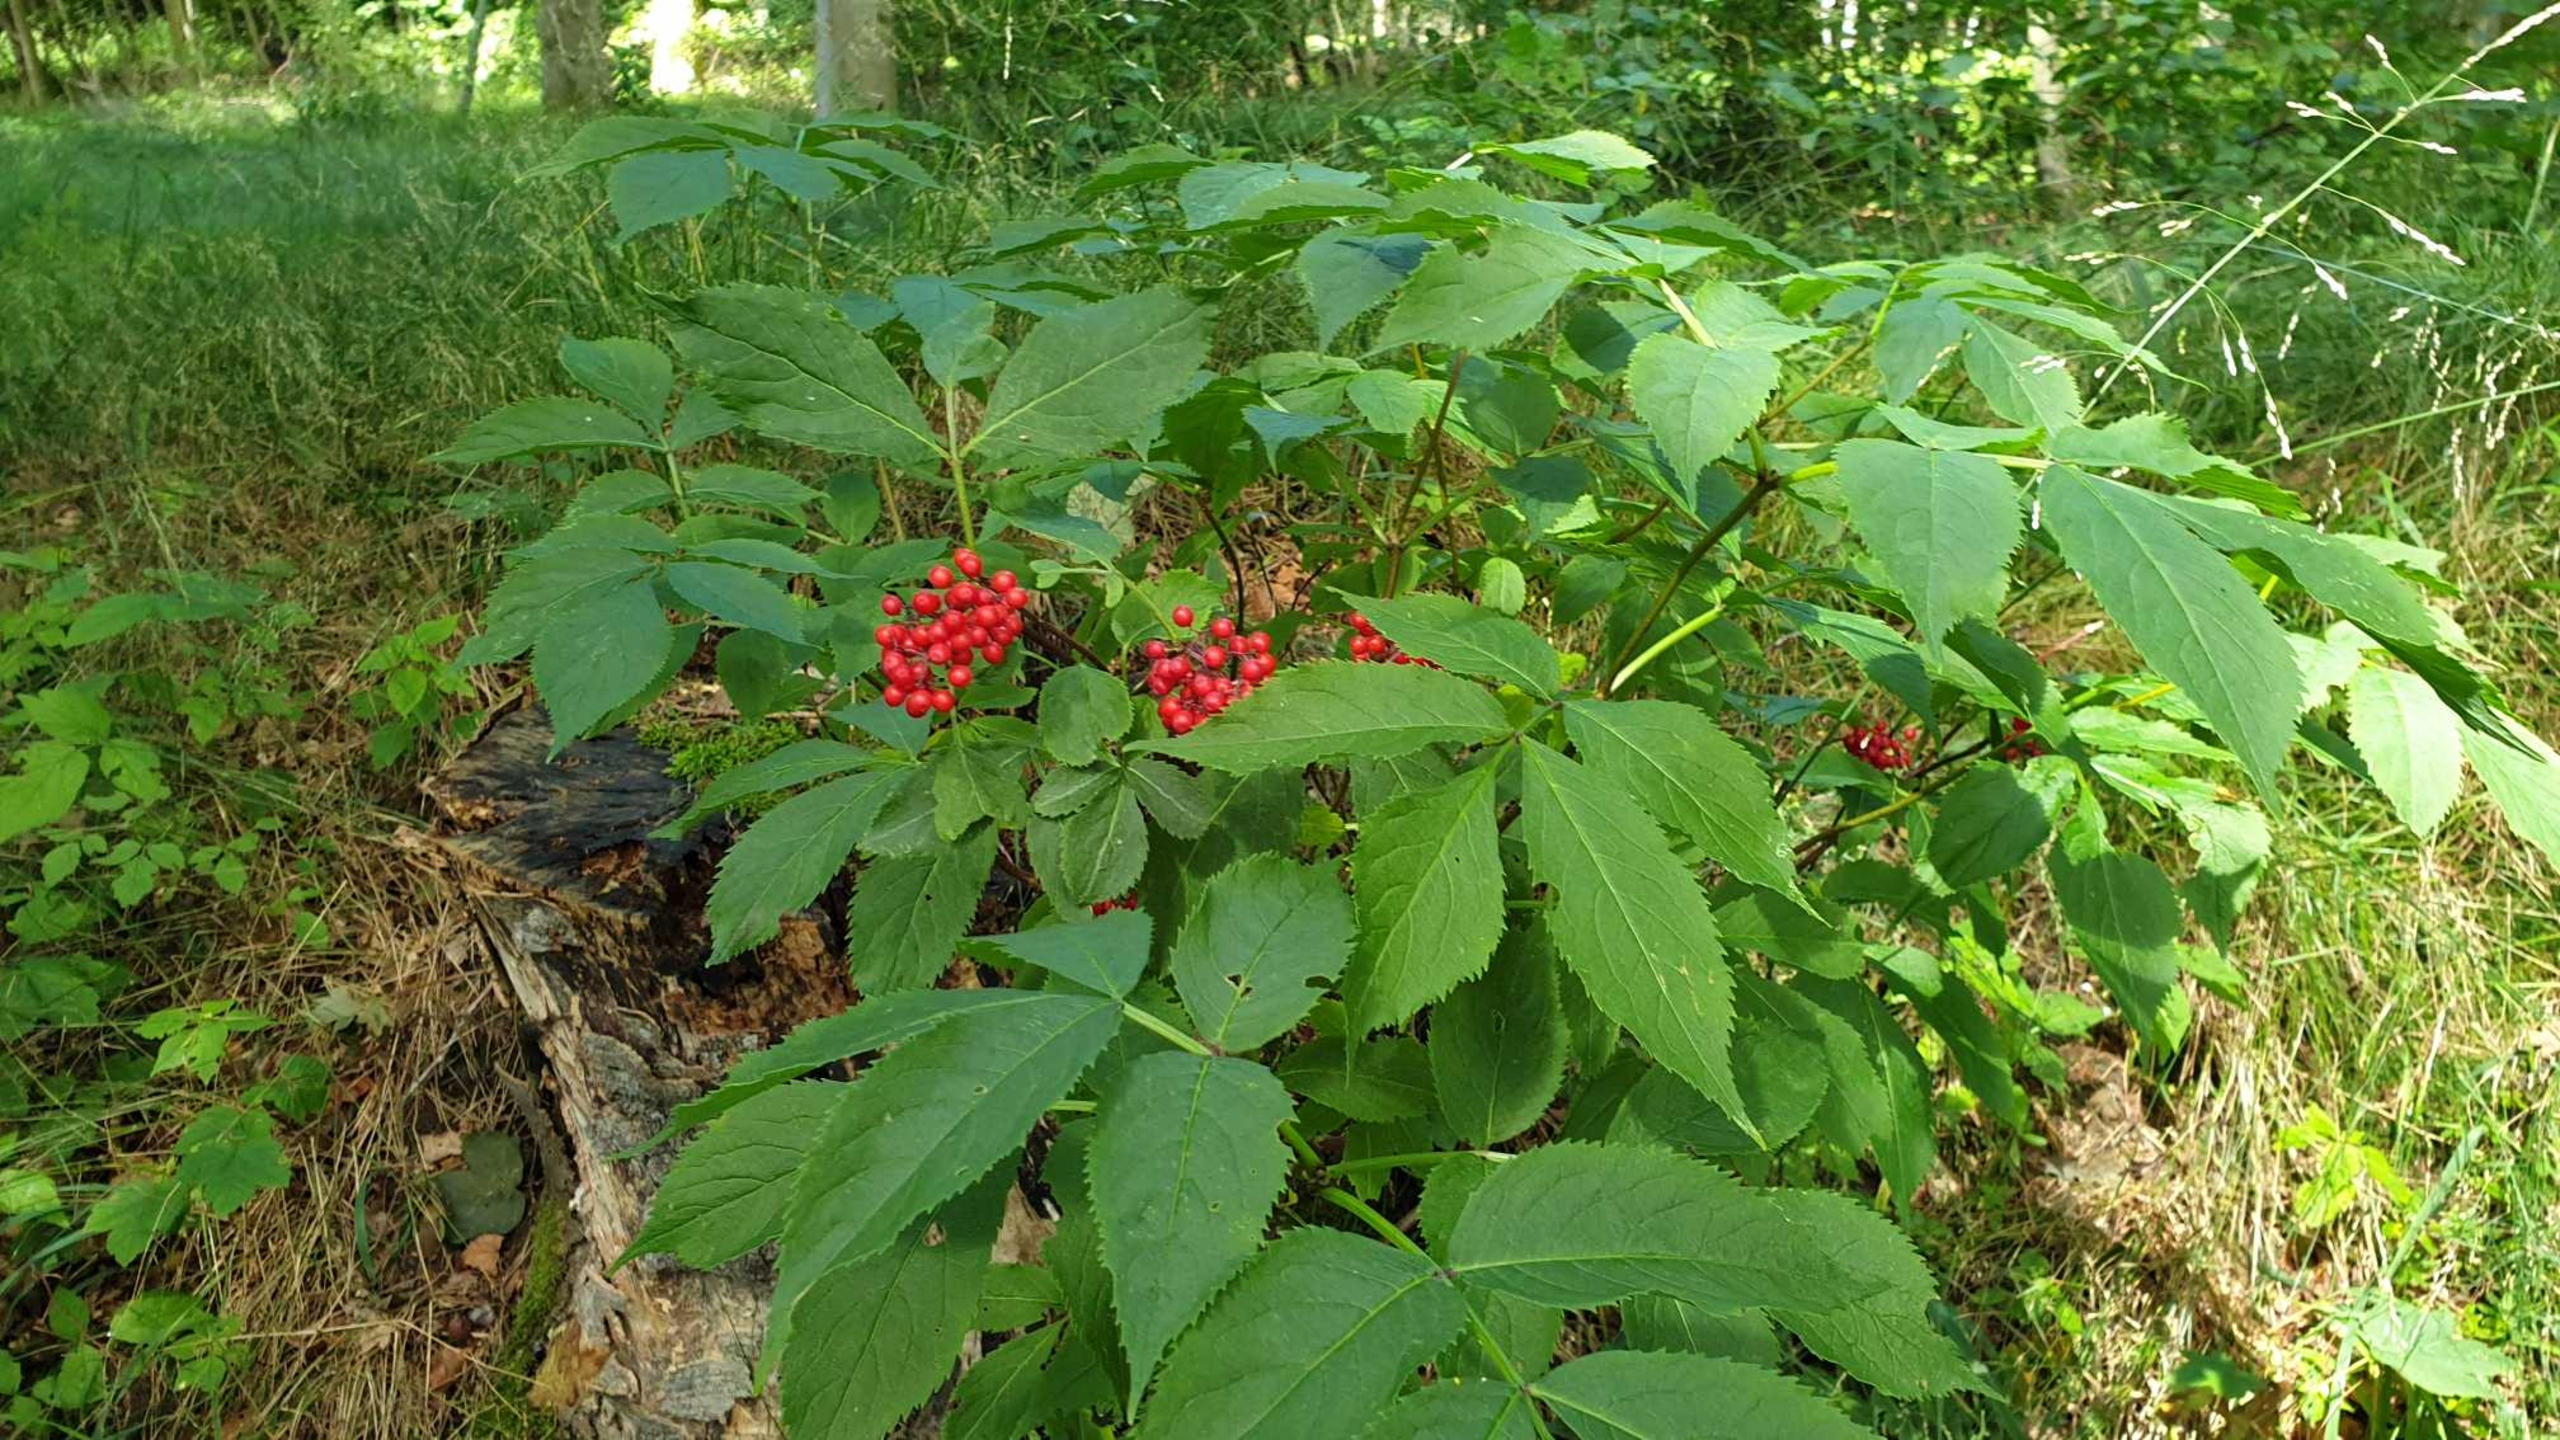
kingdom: Plantae
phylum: Tracheophyta
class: Magnoliopsida
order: Dipsacales
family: Viburnaceae
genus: Sambucus
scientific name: Sambucus racemosa
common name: Drue-hyld
